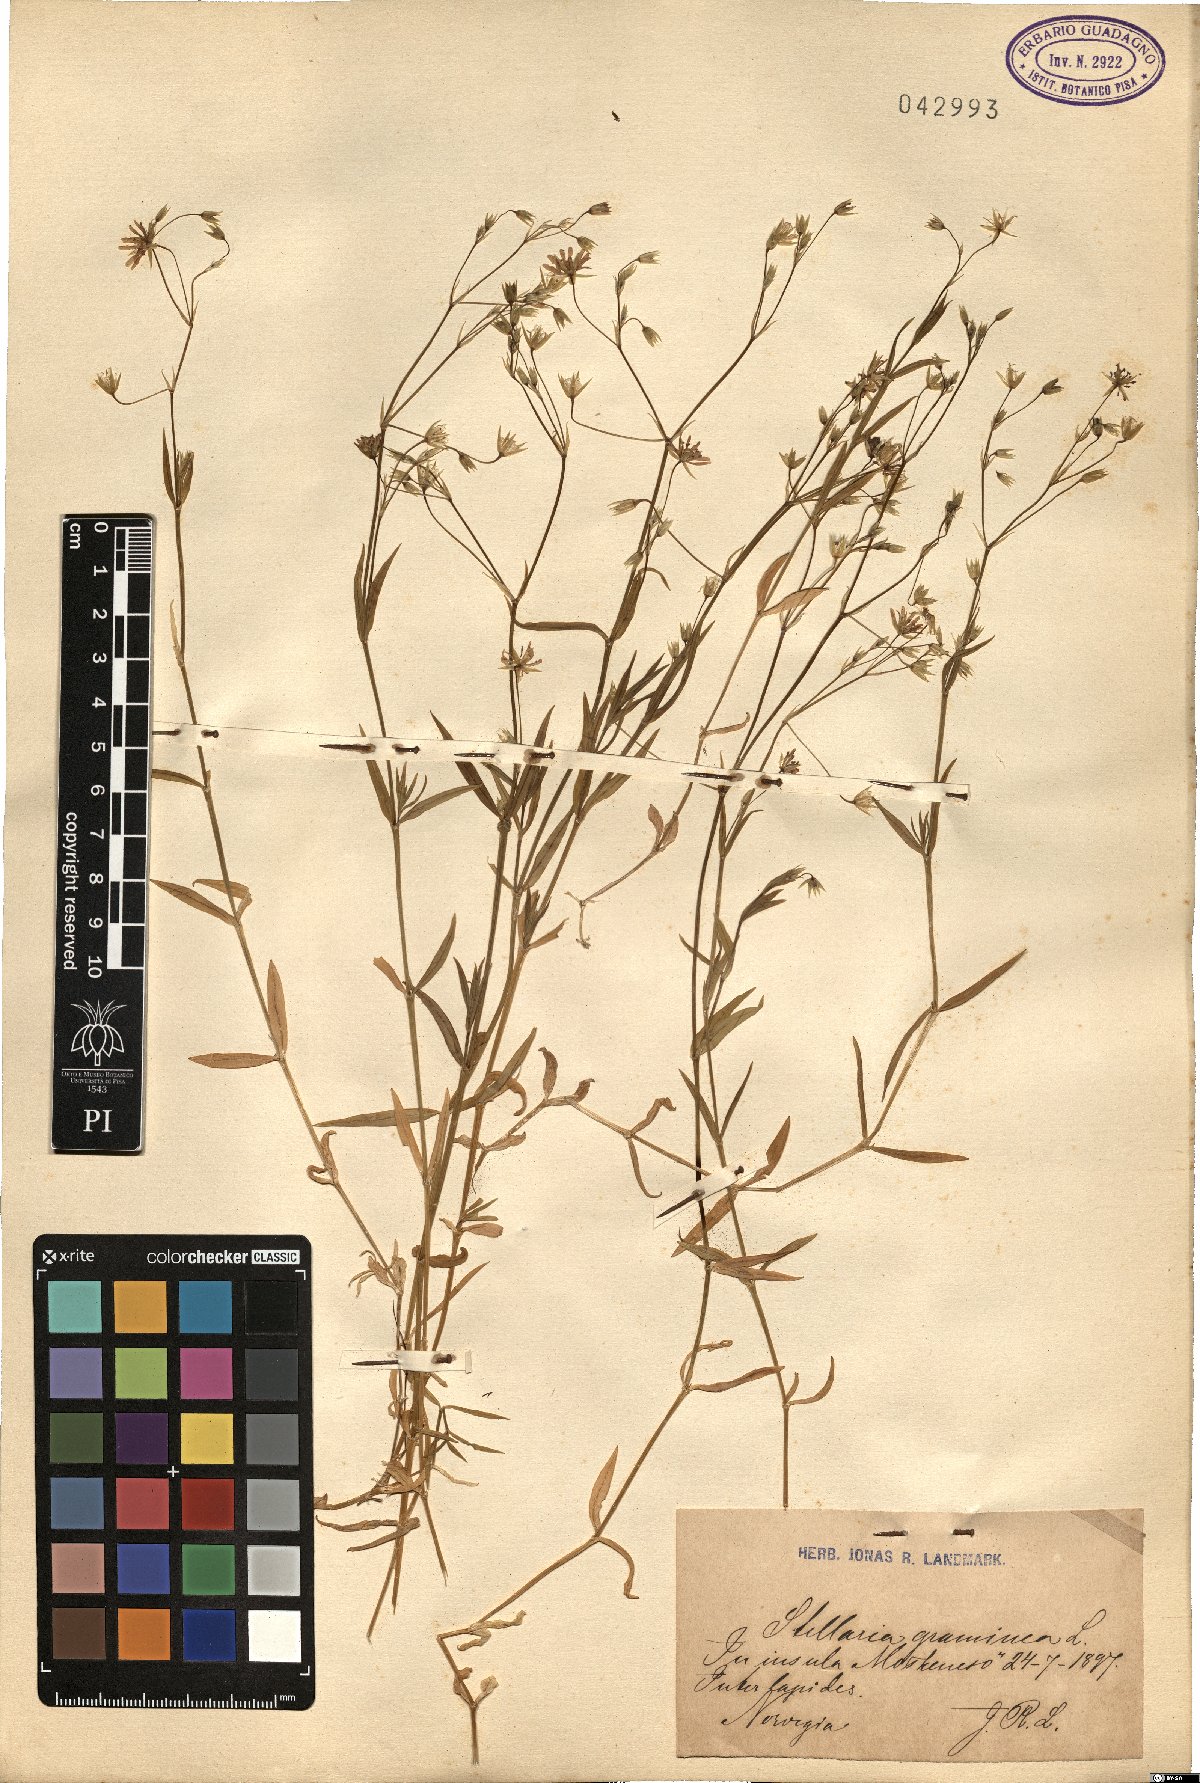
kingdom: Plantae
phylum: Tracheophyta
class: Magnoliopsida
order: Caryophyllales
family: Caryophyllaceae
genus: Stellaria
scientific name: Stellaria graminea
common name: Grass-like starwort
